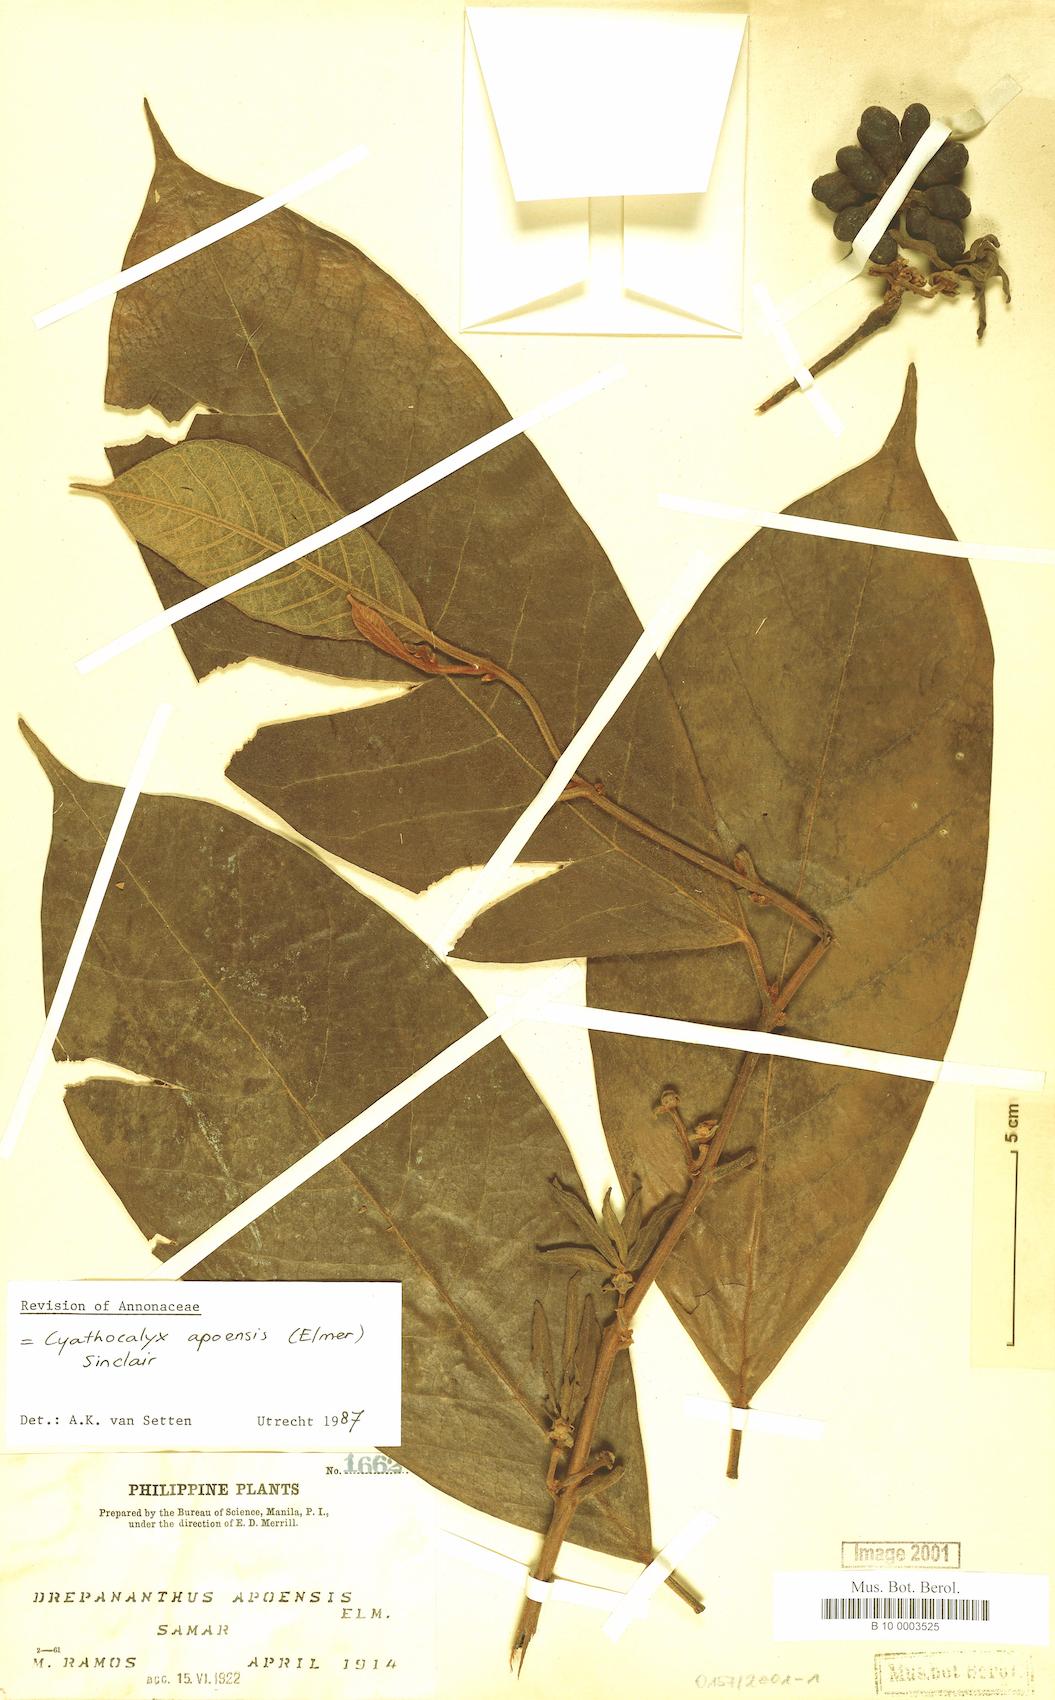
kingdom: Plantae
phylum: Tracheophyta
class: Magnoliopsida
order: Magnoliales
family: Annonaceae
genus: Drepananthus
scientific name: Drepananthus apoensis
